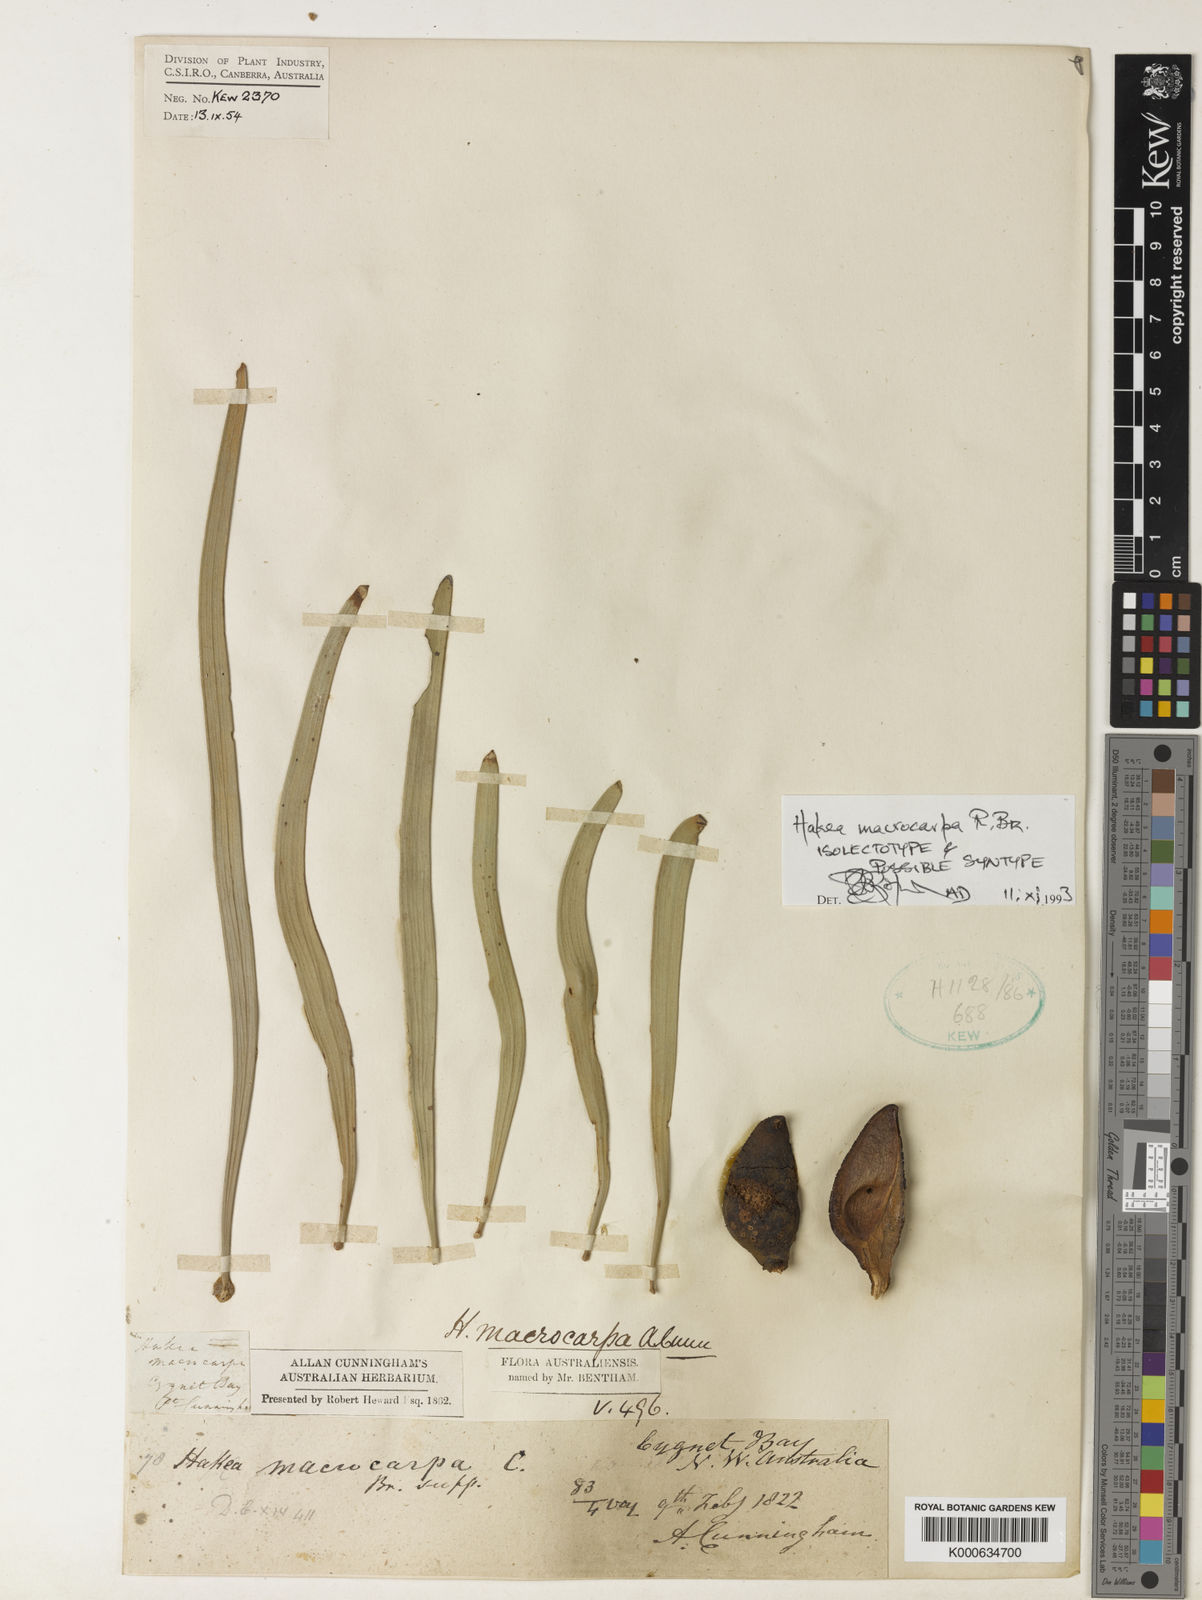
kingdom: Plantae
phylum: Tracheophyta
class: Magnoliopsida
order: Proteales
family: Proteaceae
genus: Hakea
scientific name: Hakea macrocarpa
